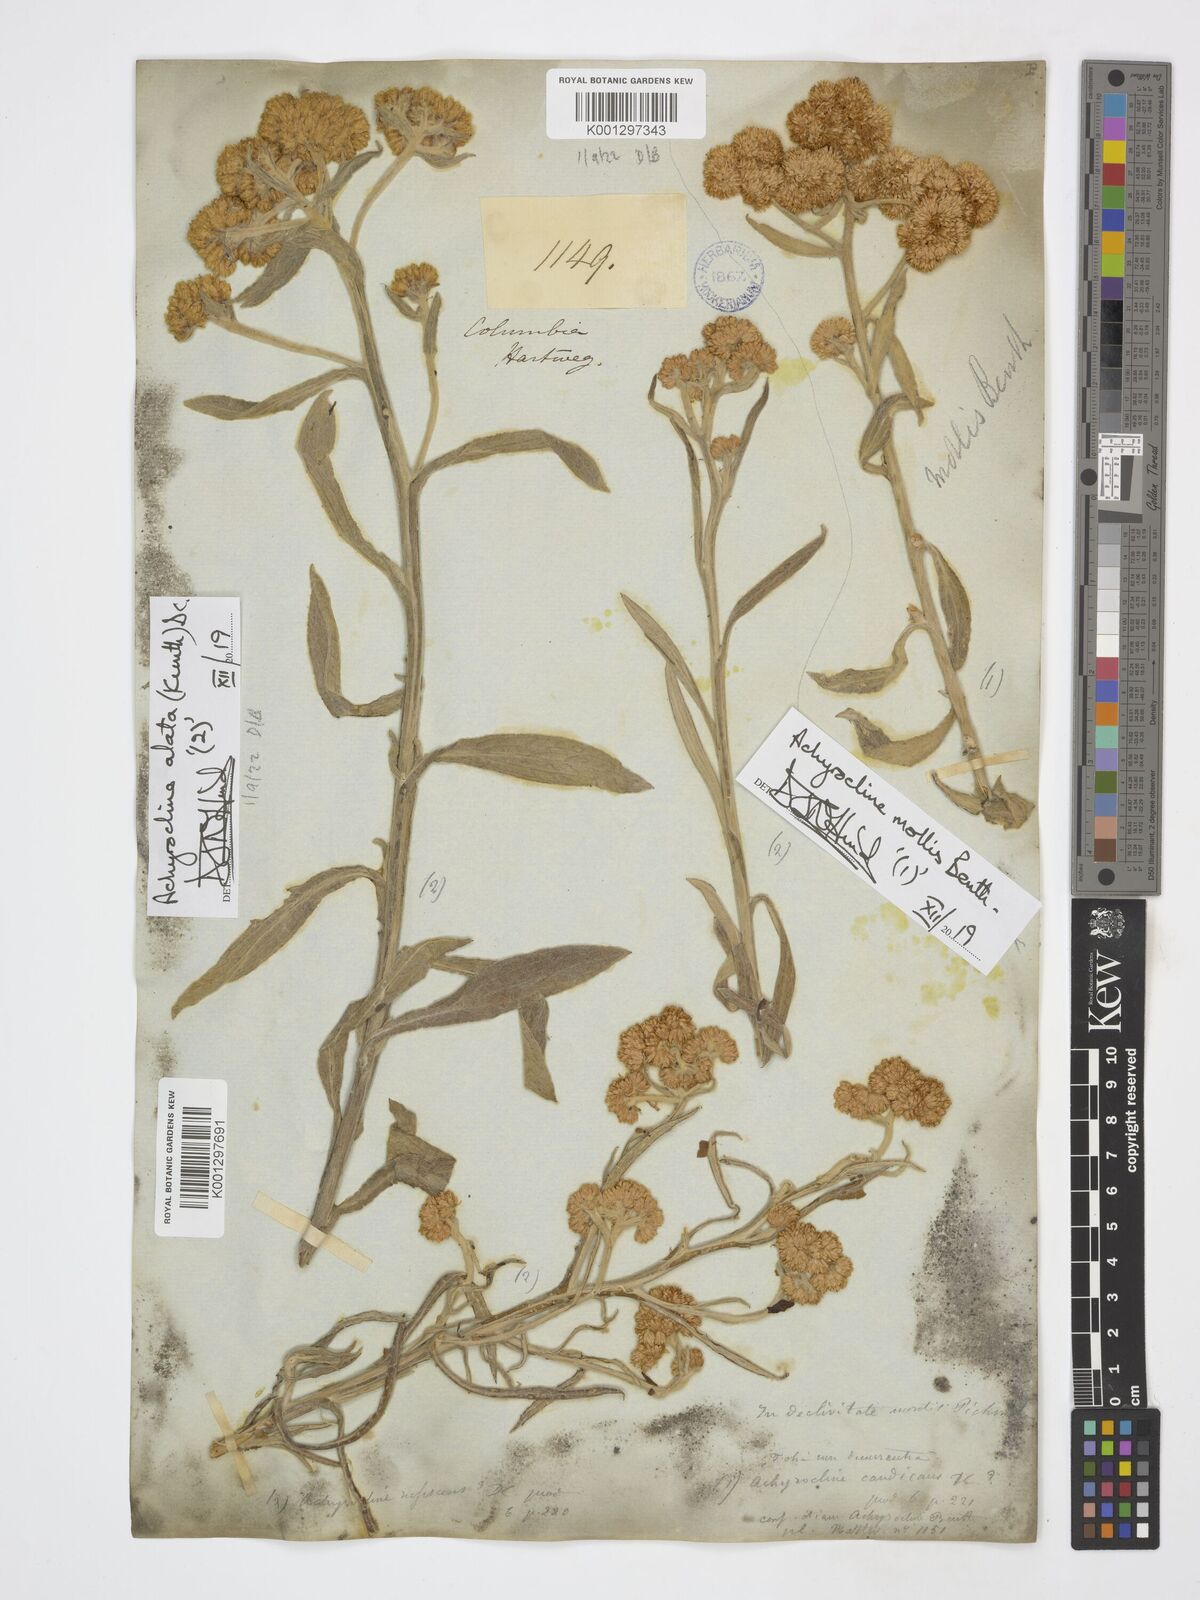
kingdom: Plantae
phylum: Tracheophyta
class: Magnoliopsida
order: Asterales
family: Asteraceae
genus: Achyrocline
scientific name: Achyrocline alata
